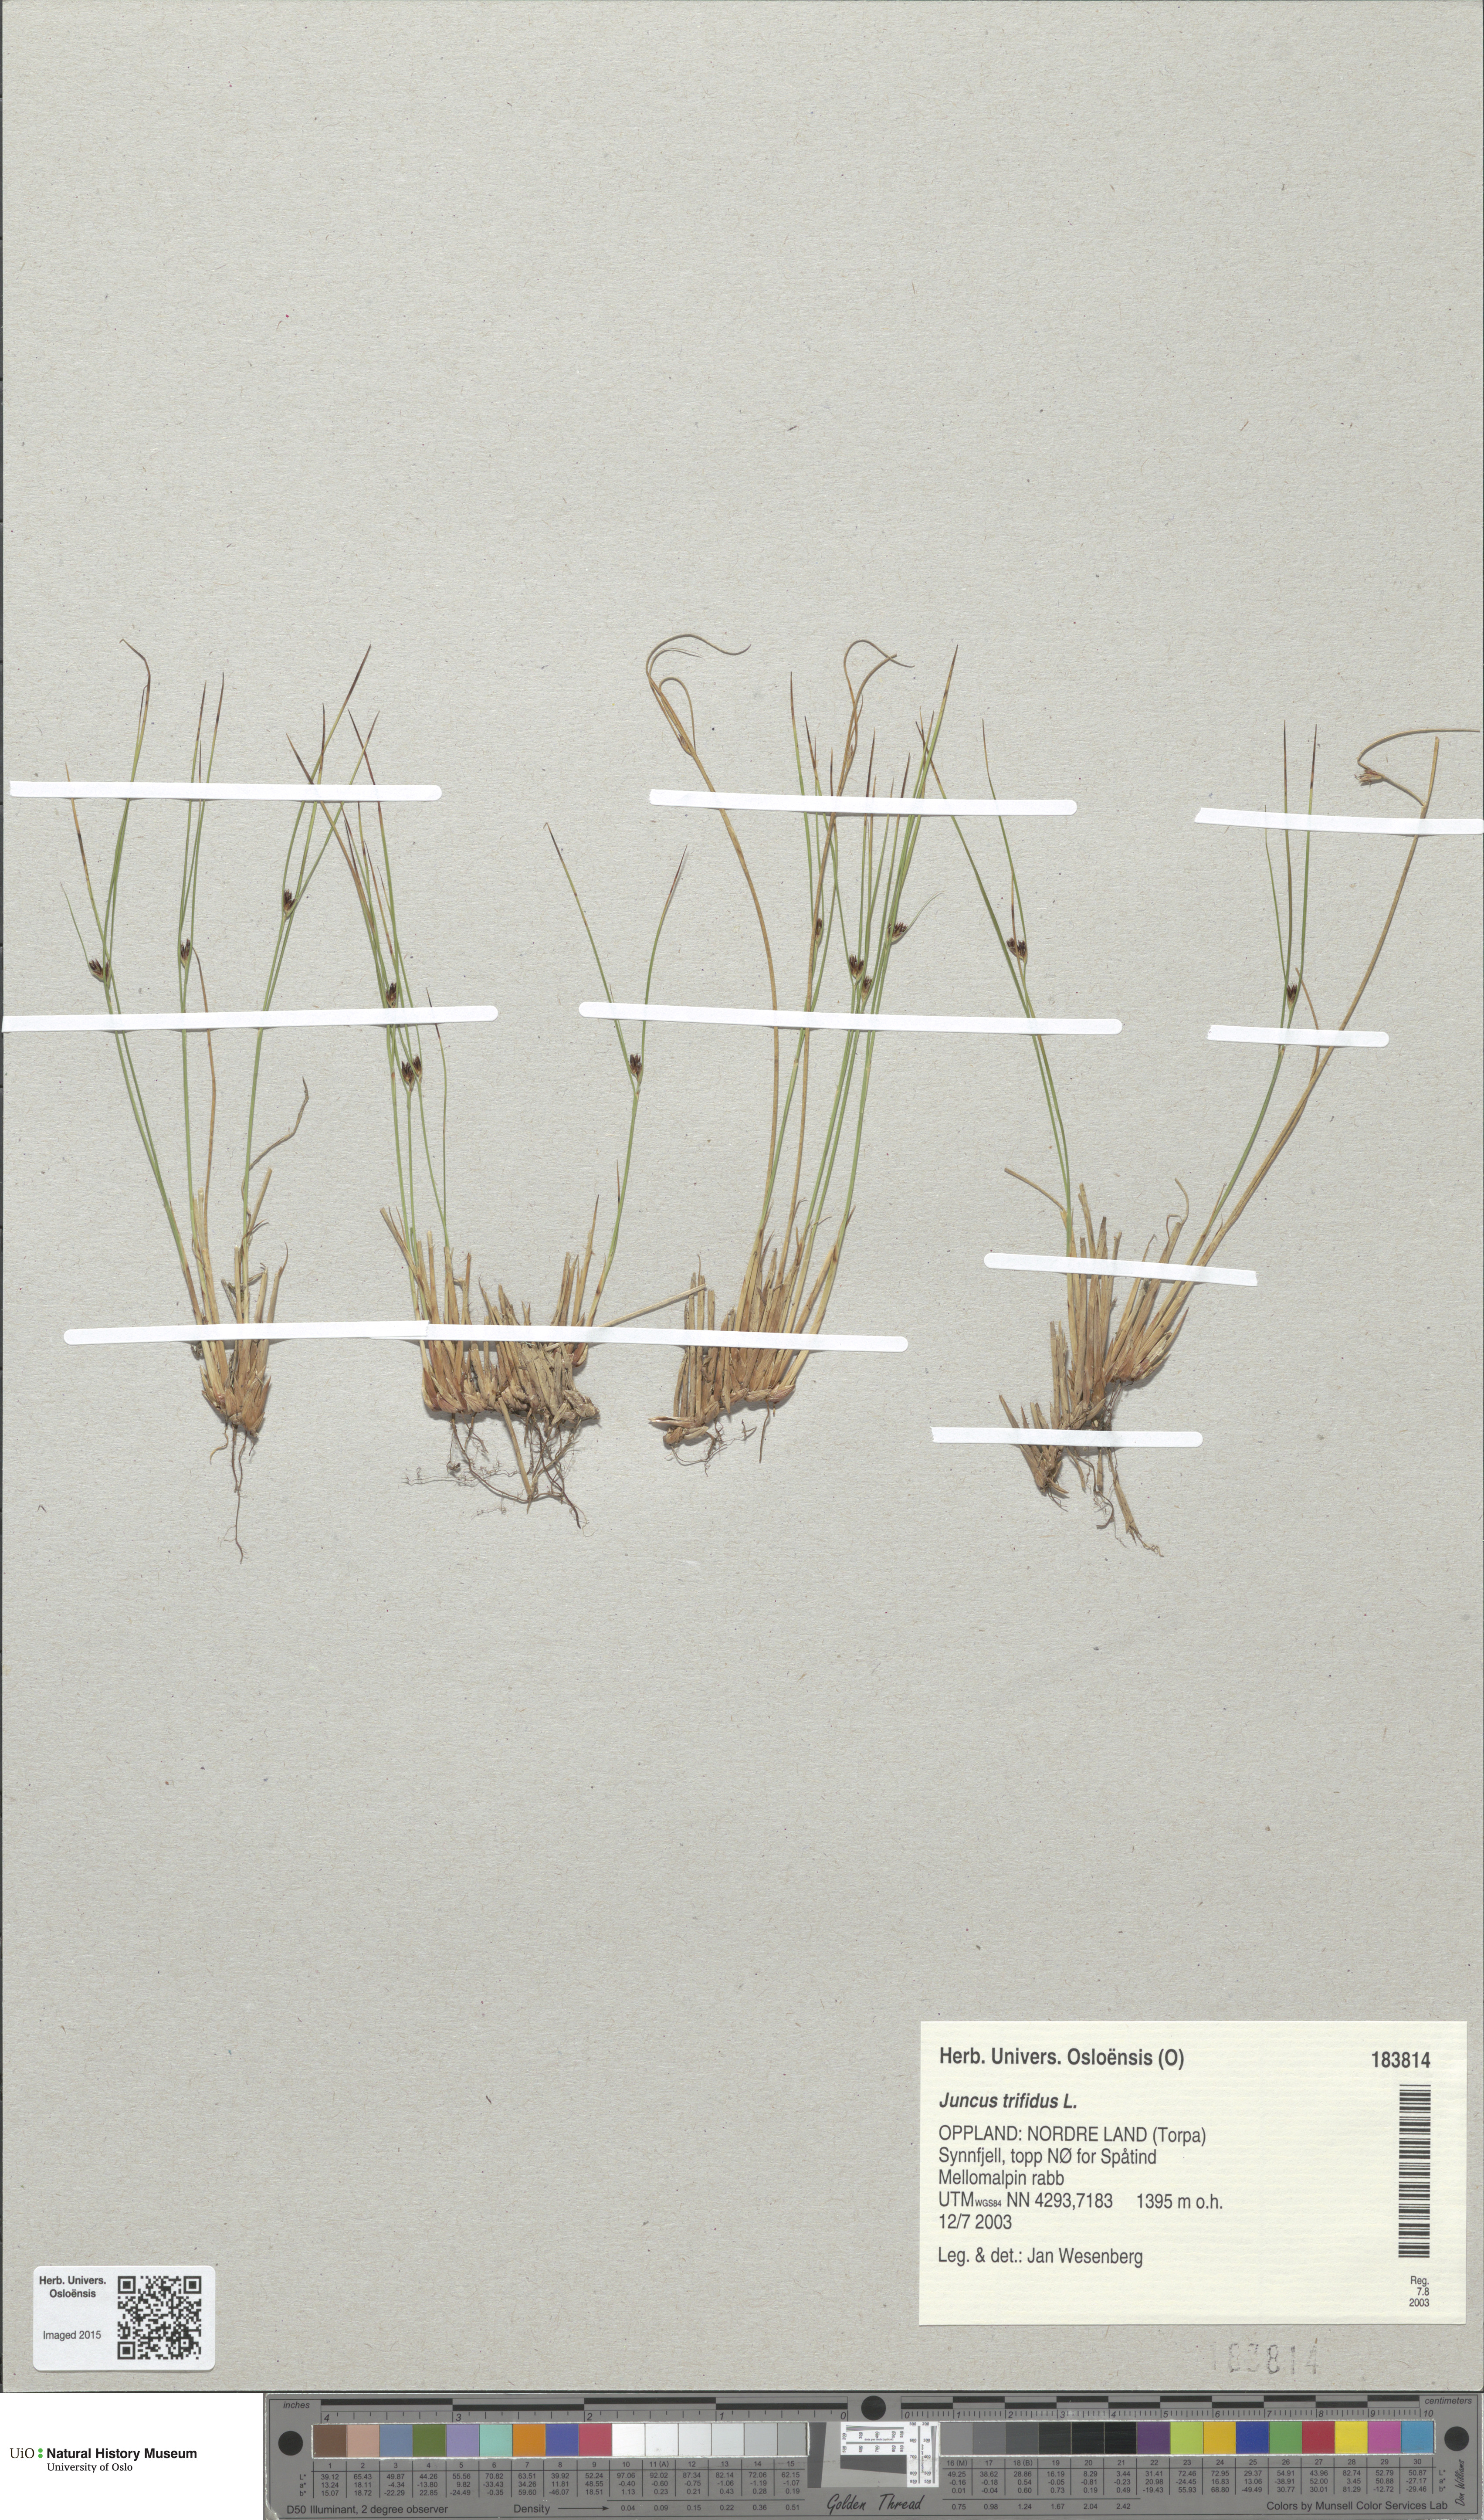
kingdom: Plantae
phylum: Tracheophyta
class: Liliopsida
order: Poales
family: Juncaceae
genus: Oreojuncus
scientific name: Oreojuncus trifidus
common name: Highland rush
